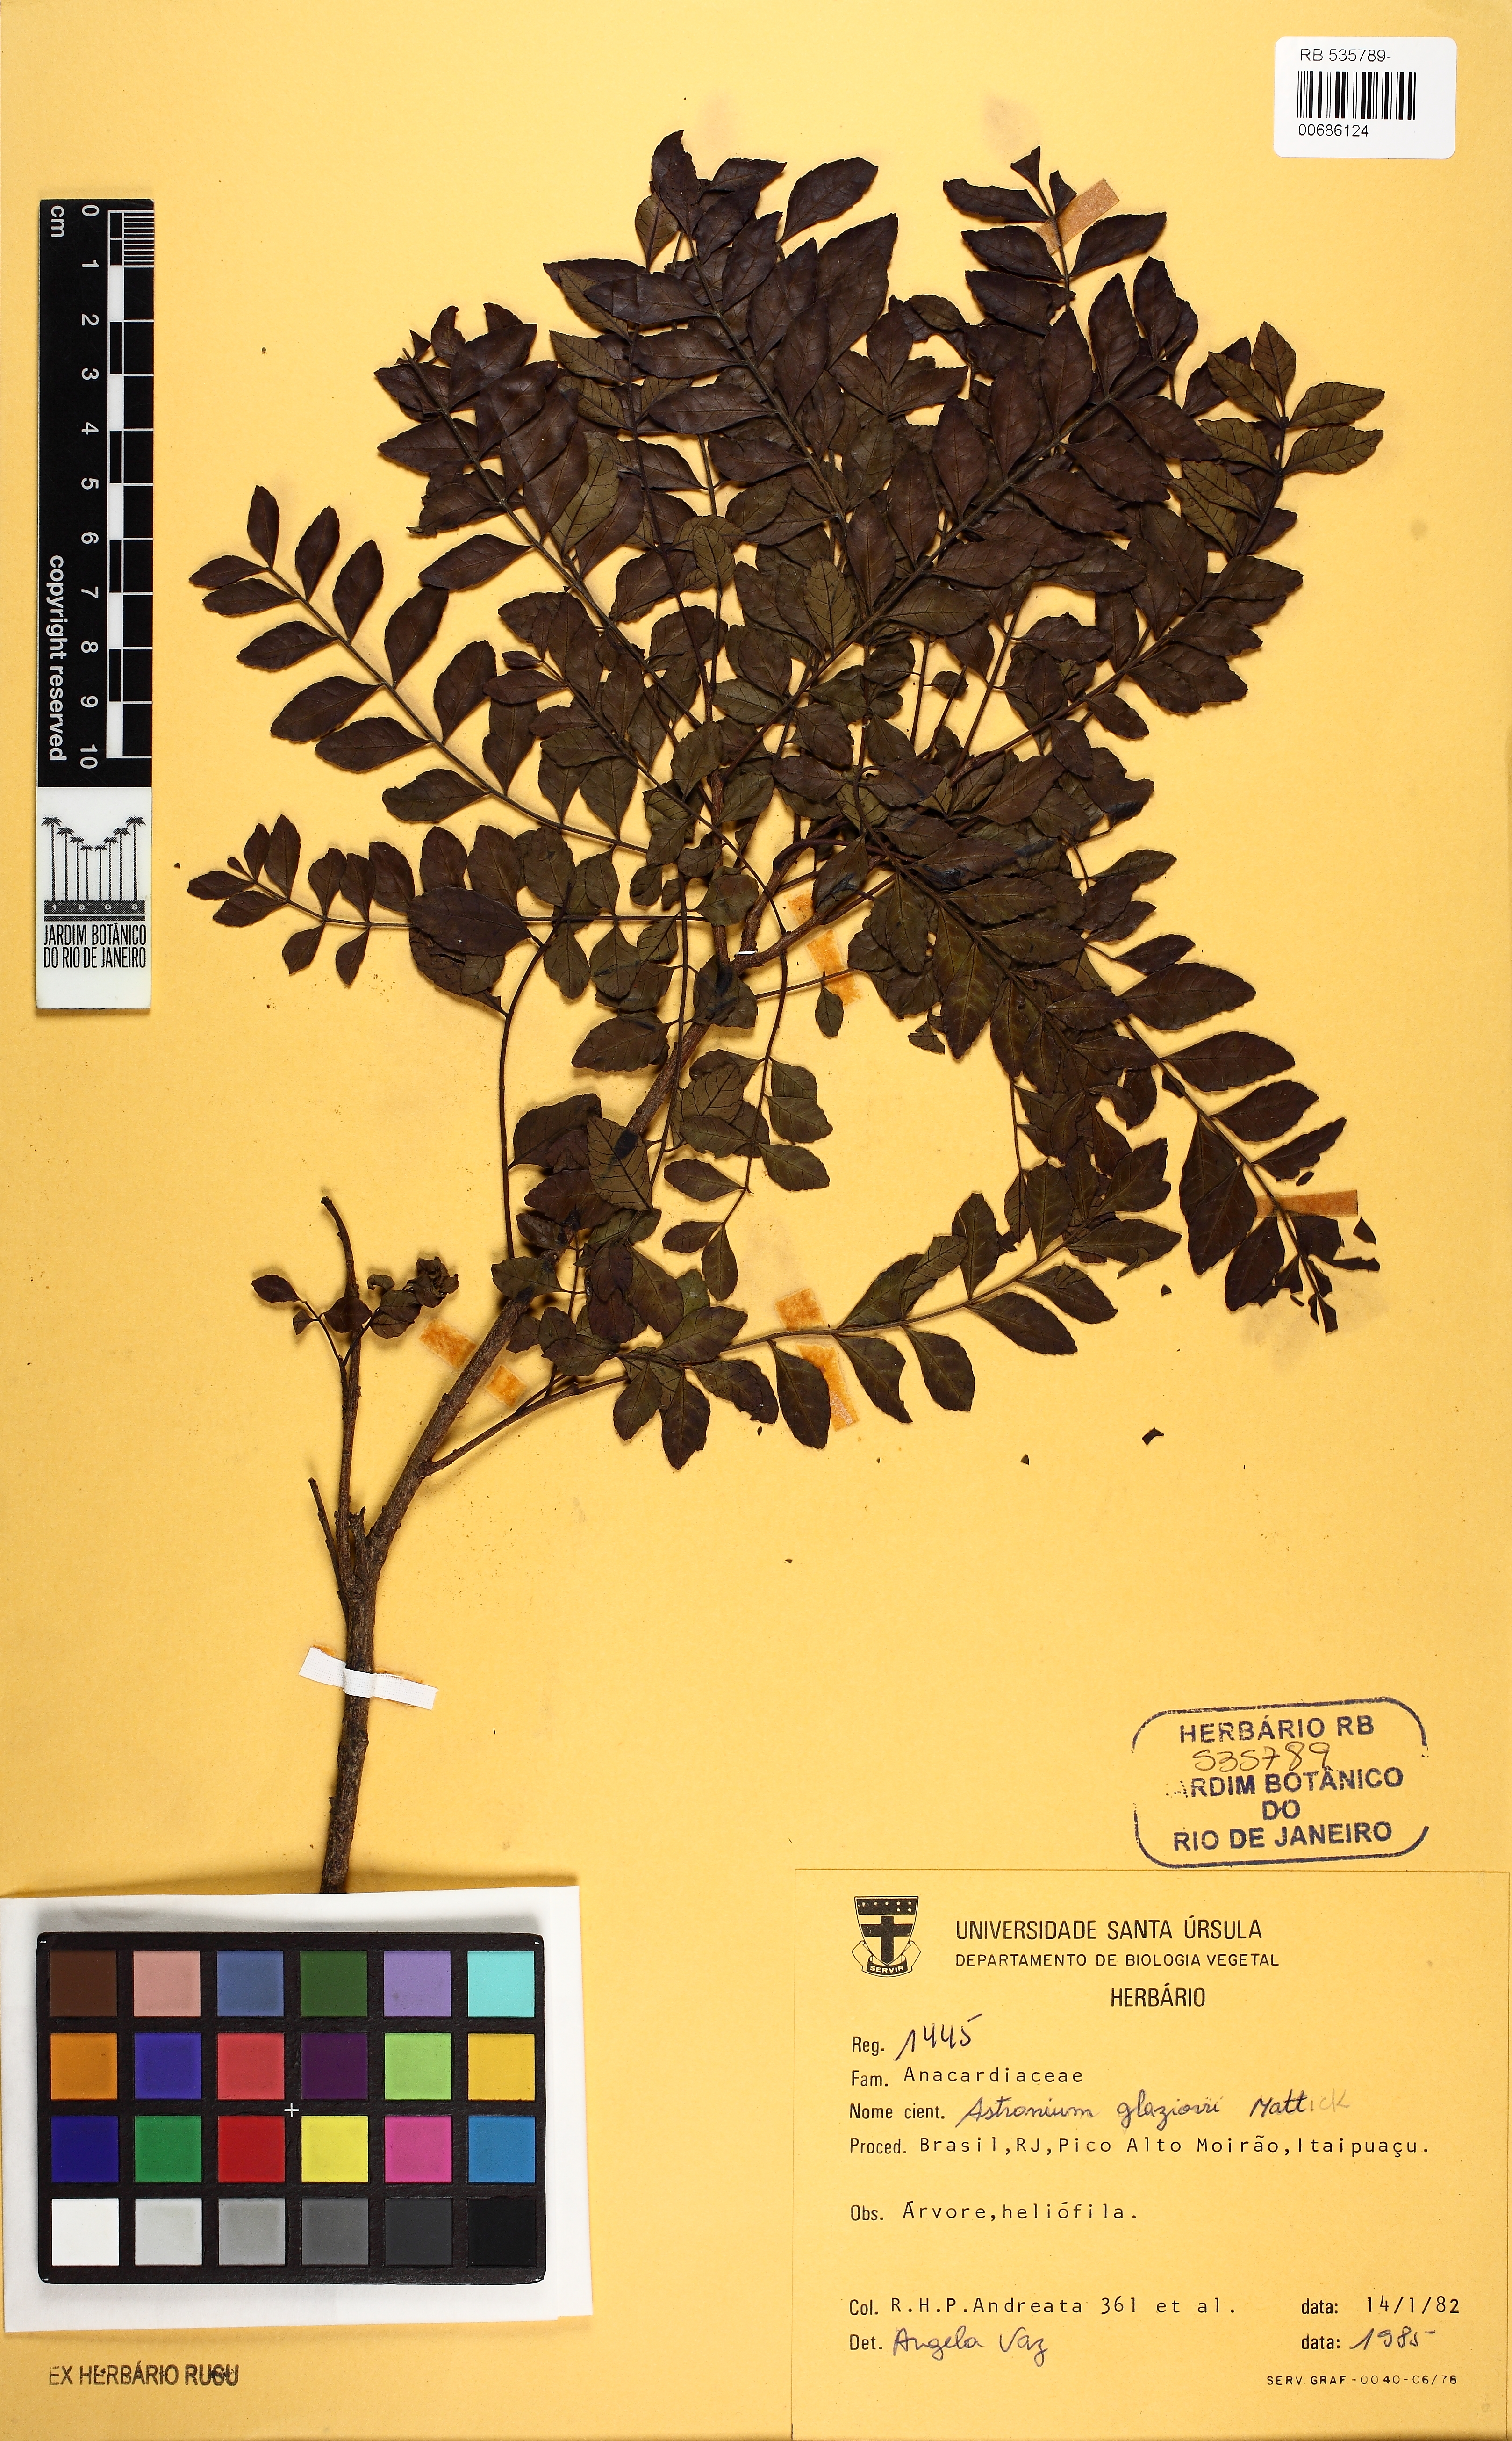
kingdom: Plantae
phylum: Tracheophyta
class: Magnoliopsida
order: Sapindales
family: Anacardiaceae
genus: Astronium
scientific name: Astronium glaziovii
